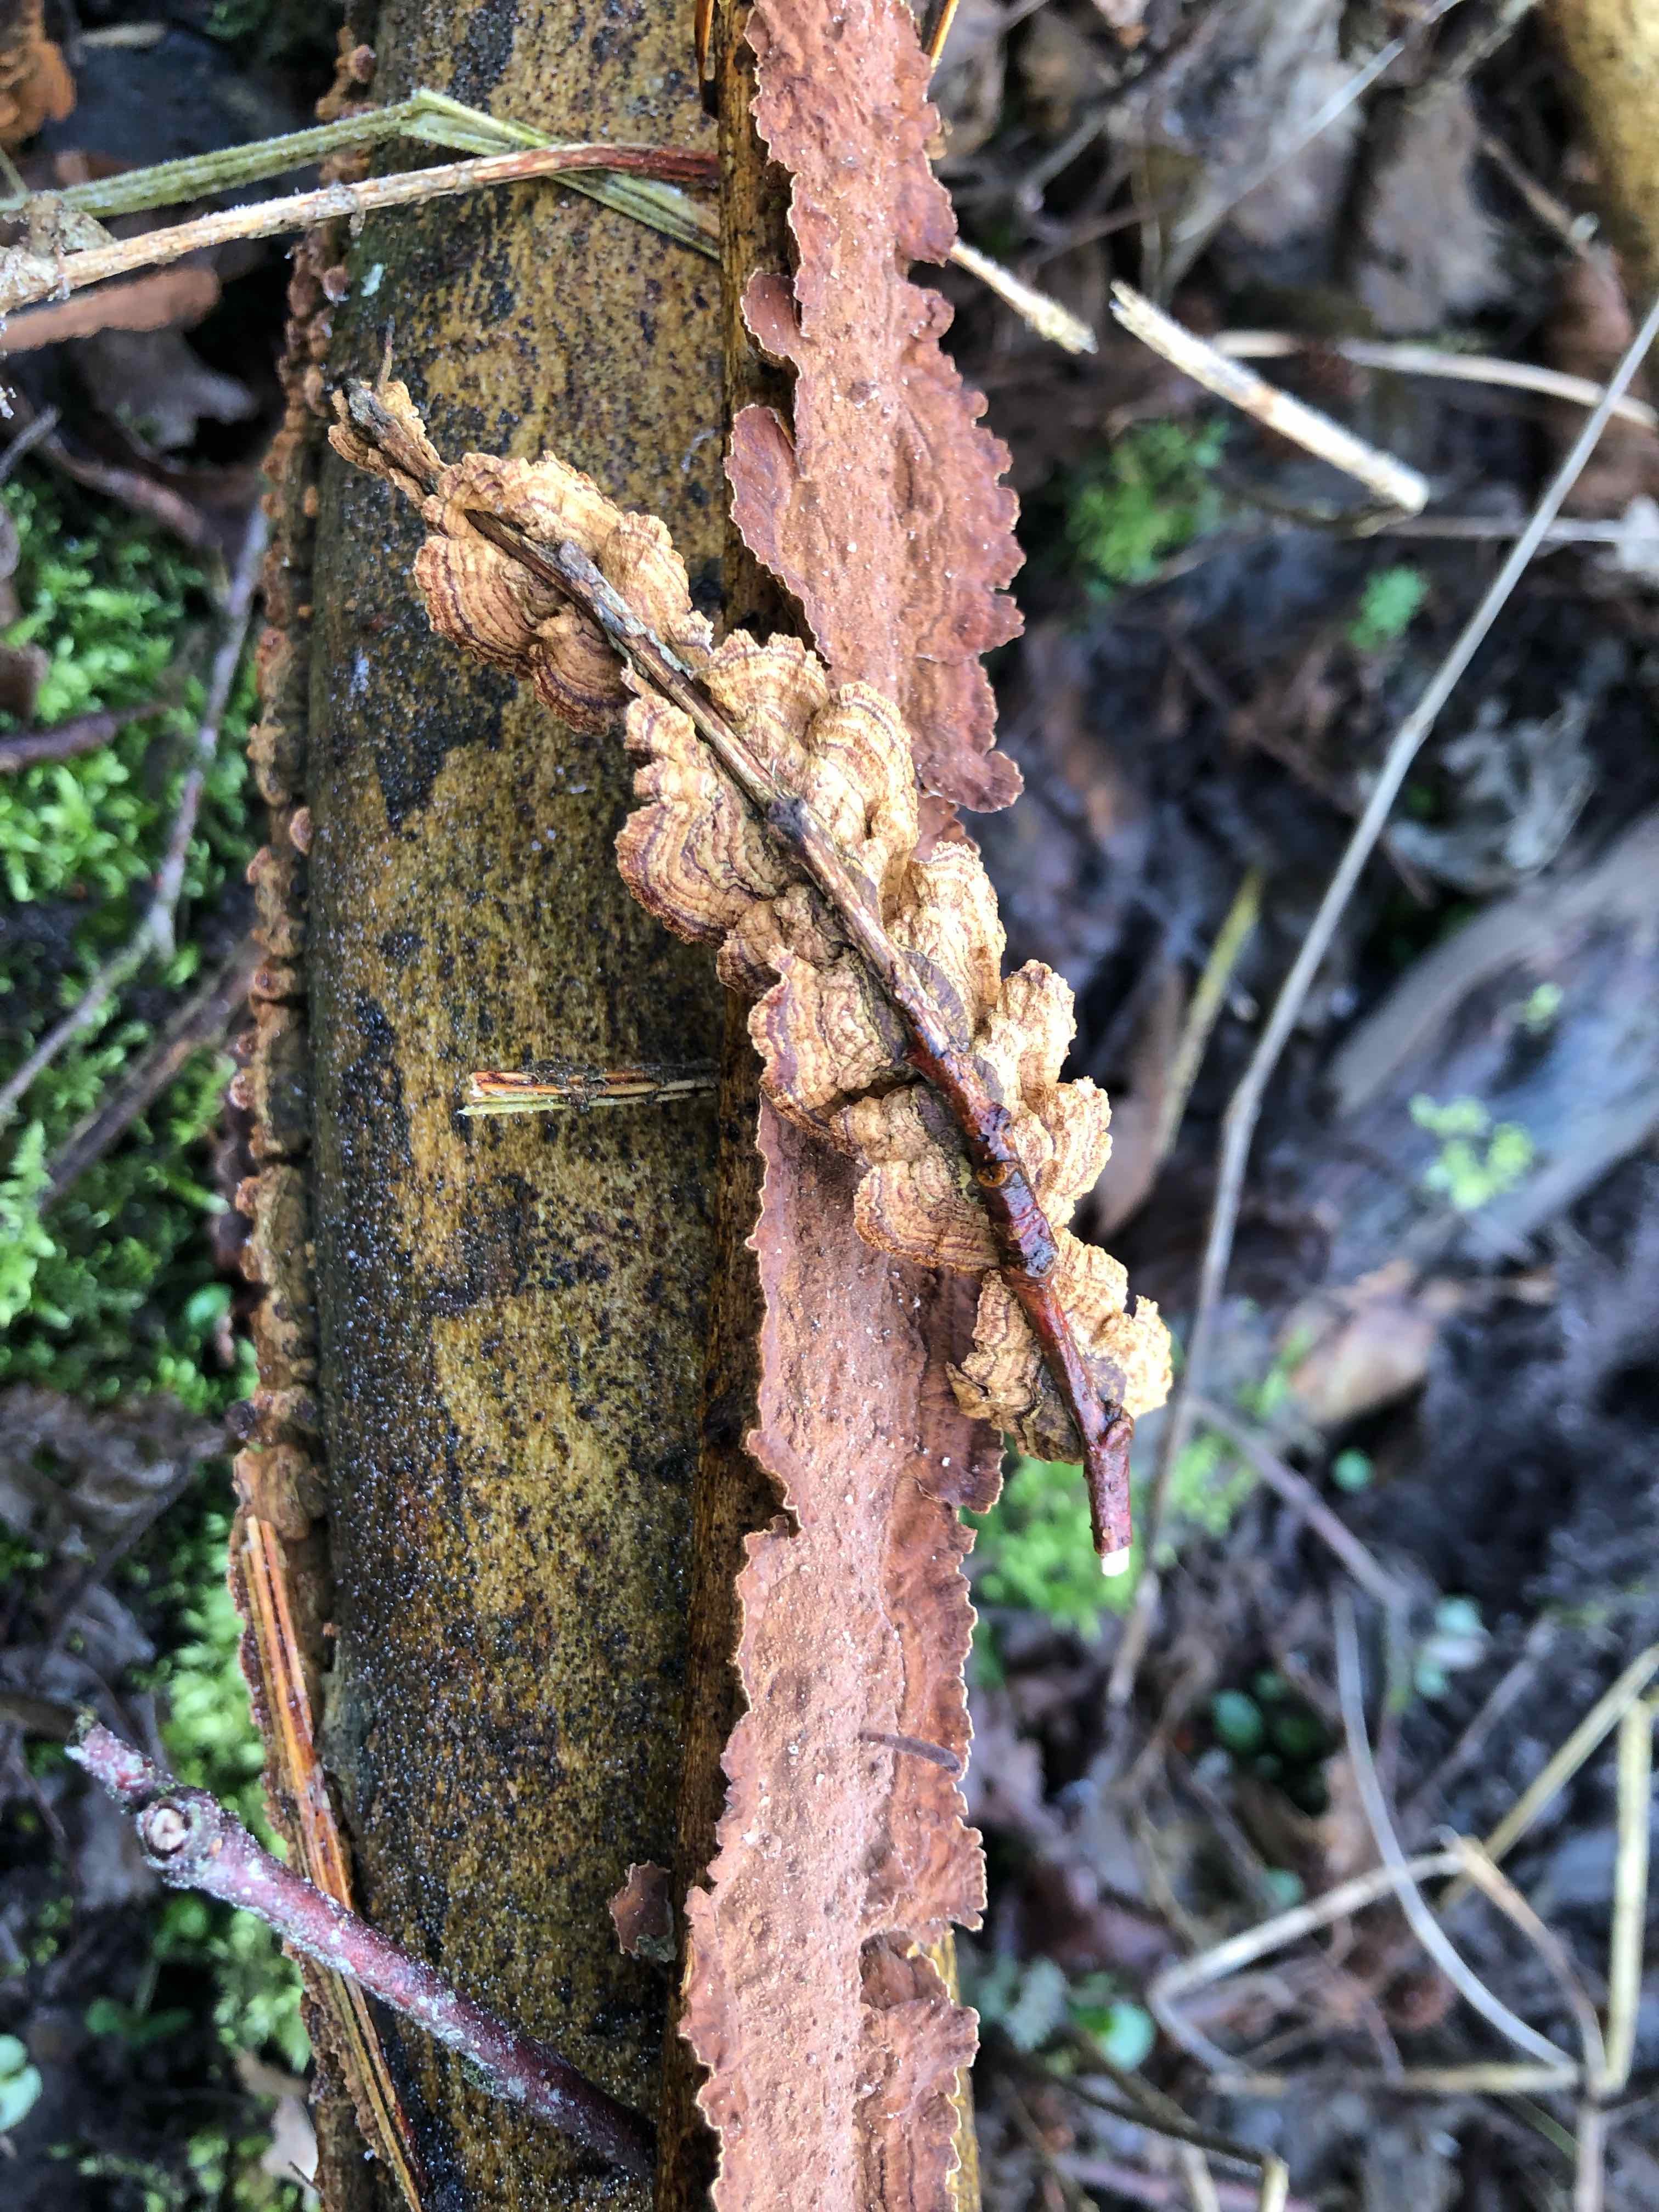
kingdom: Fungi
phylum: Basidiomycota
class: Agaricomycetes
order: Hymenochaetales
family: Hymenochaetaceae
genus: Hydnoporia
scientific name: Hydnoporia tabacina
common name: tobaksbrun ruslædersvamp
